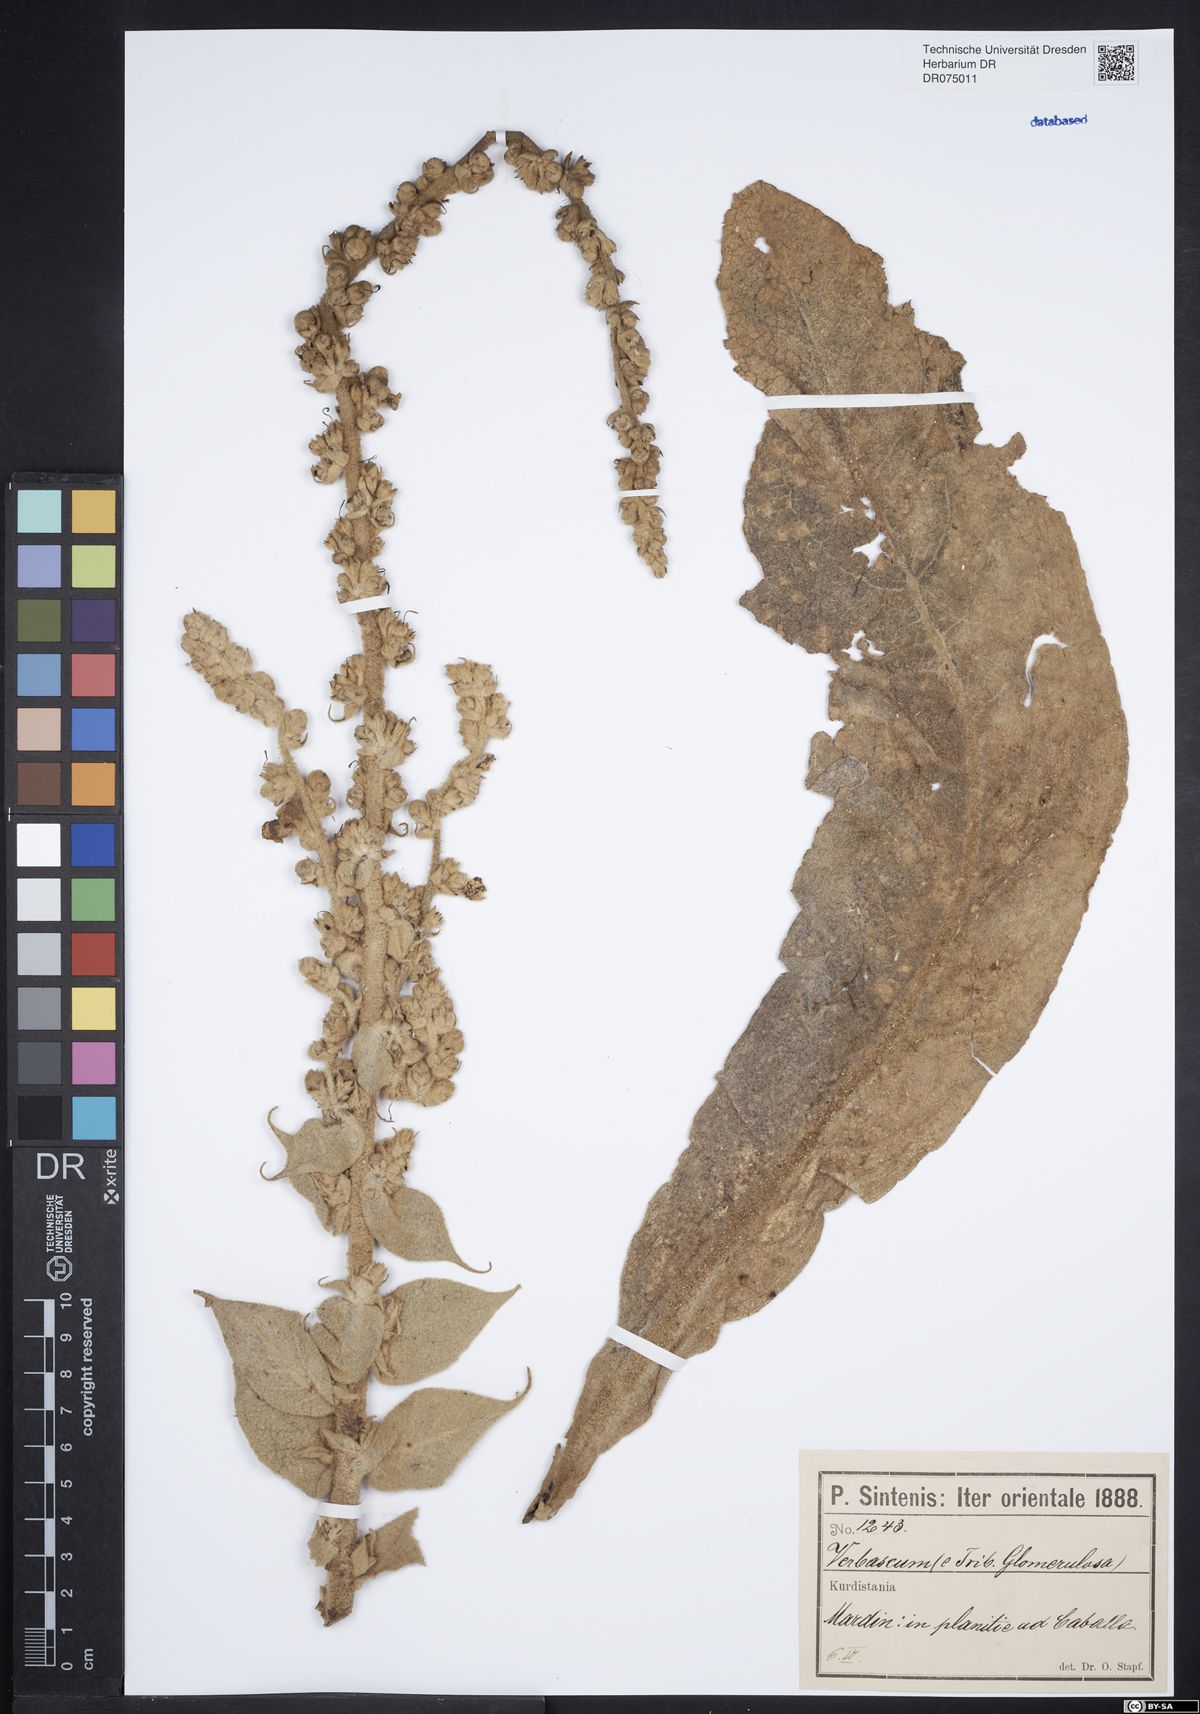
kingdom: Plantae
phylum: Tracheophyta
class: Magnoliopsida
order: Lamiales
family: Scrophulariaceae
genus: Verbascum
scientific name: Verbascum
